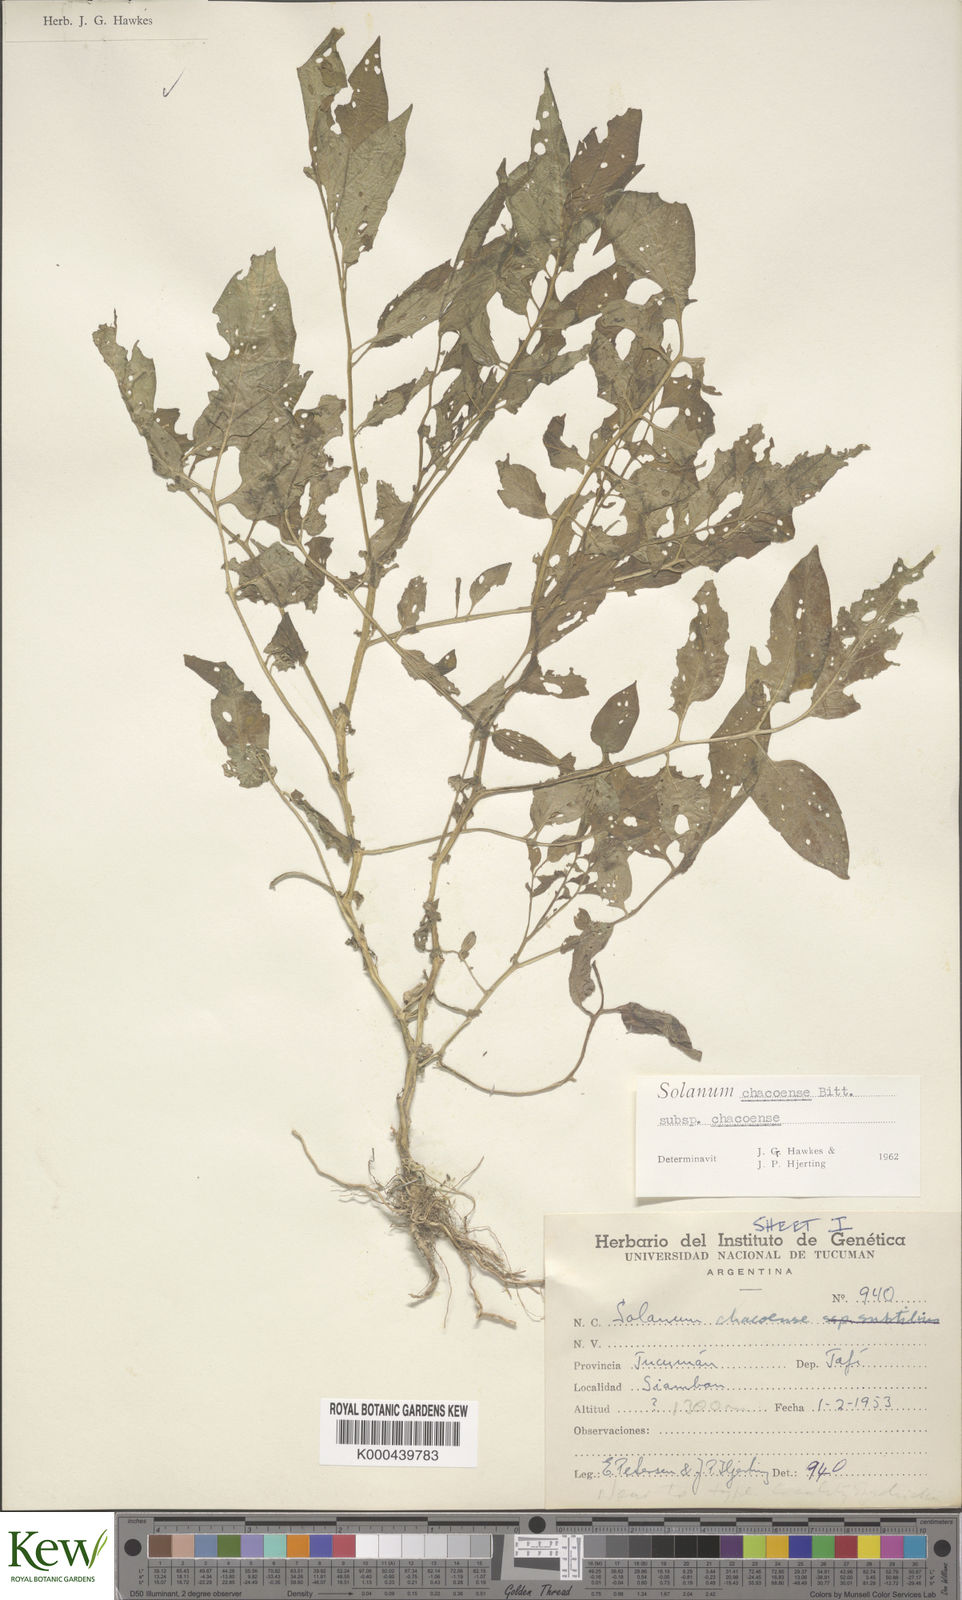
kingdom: Plantae
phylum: Tracheophyta
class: Magnoliopsida
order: Solanales
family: Solanaceae
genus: Solanum
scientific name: Solanum chacoense
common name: Chaco potato
